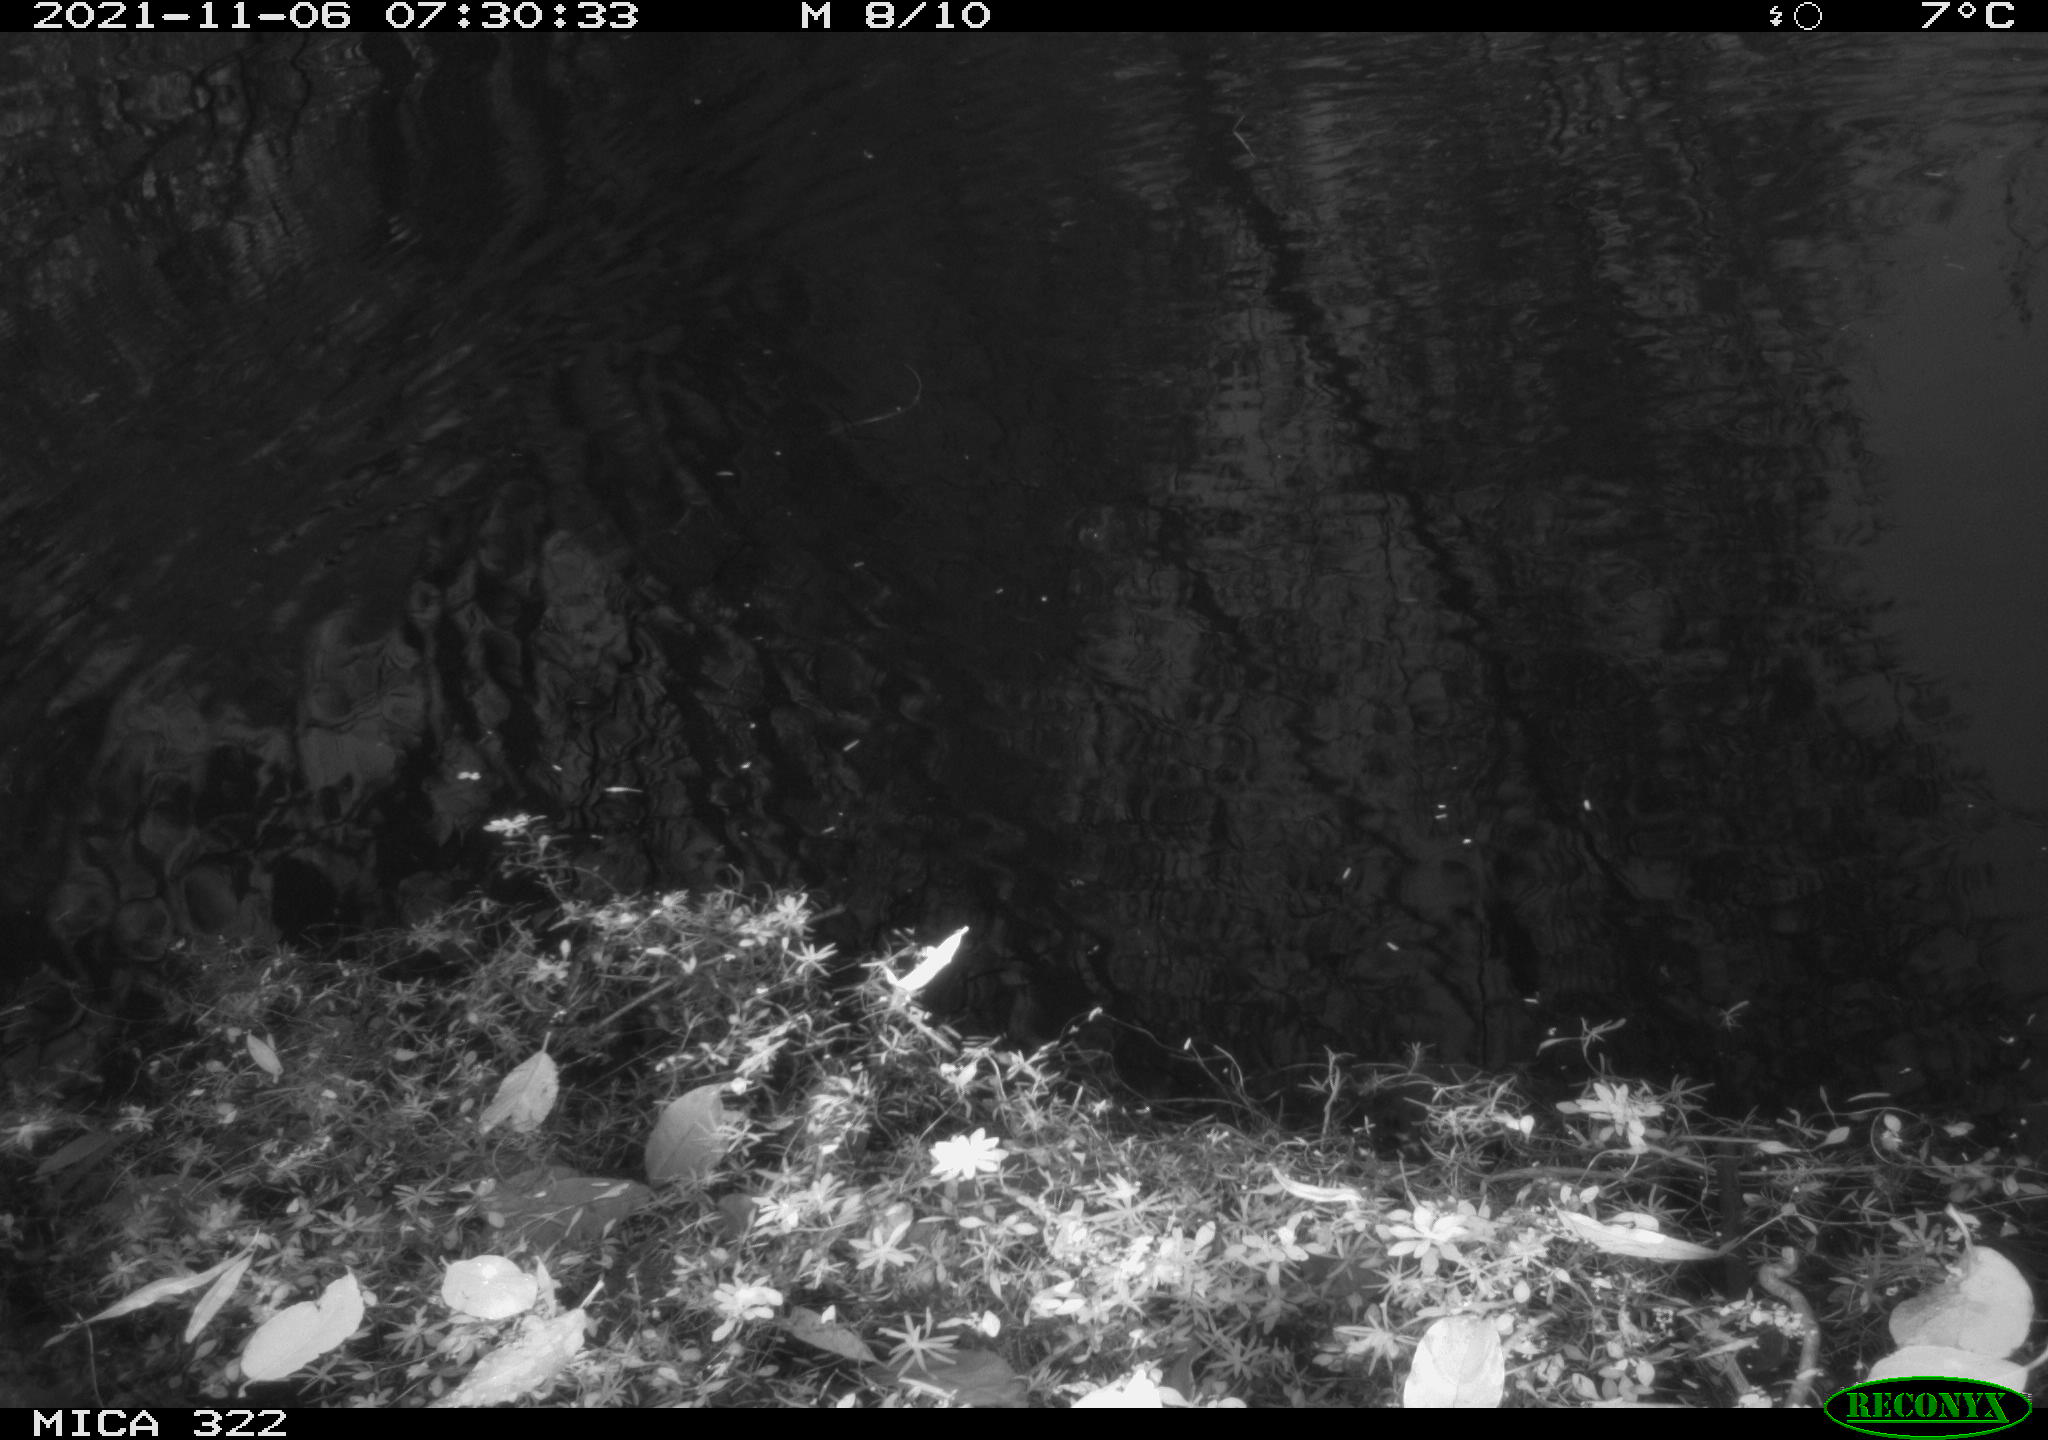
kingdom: Animalia
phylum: Chordata
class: Aves
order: Gruiformes
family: Rallidae
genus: Fulica
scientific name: Fulica atra
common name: Eurasian coot
